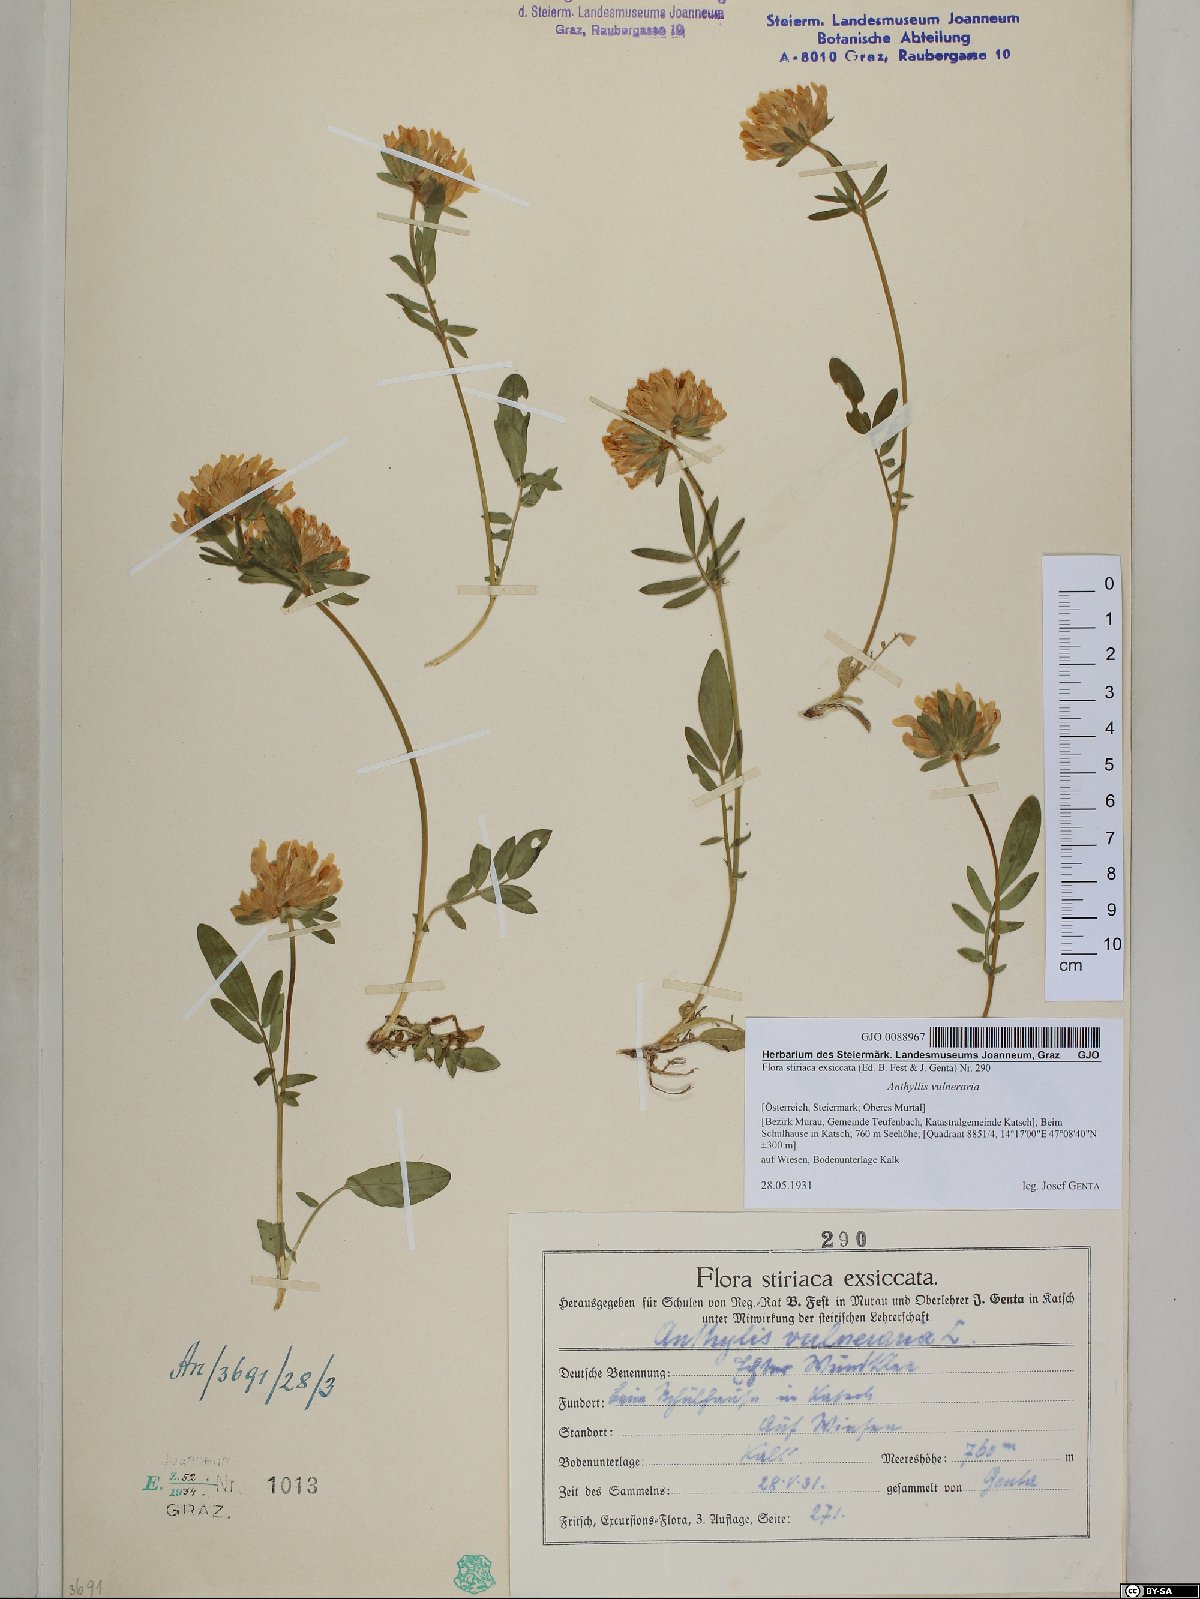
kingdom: Plantae
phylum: Tracheophyta
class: Magnoliopsida
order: Fabales
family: Fabaceae
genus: Anthyllis
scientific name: Anthyllis vulneraria
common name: Kidney vetch
